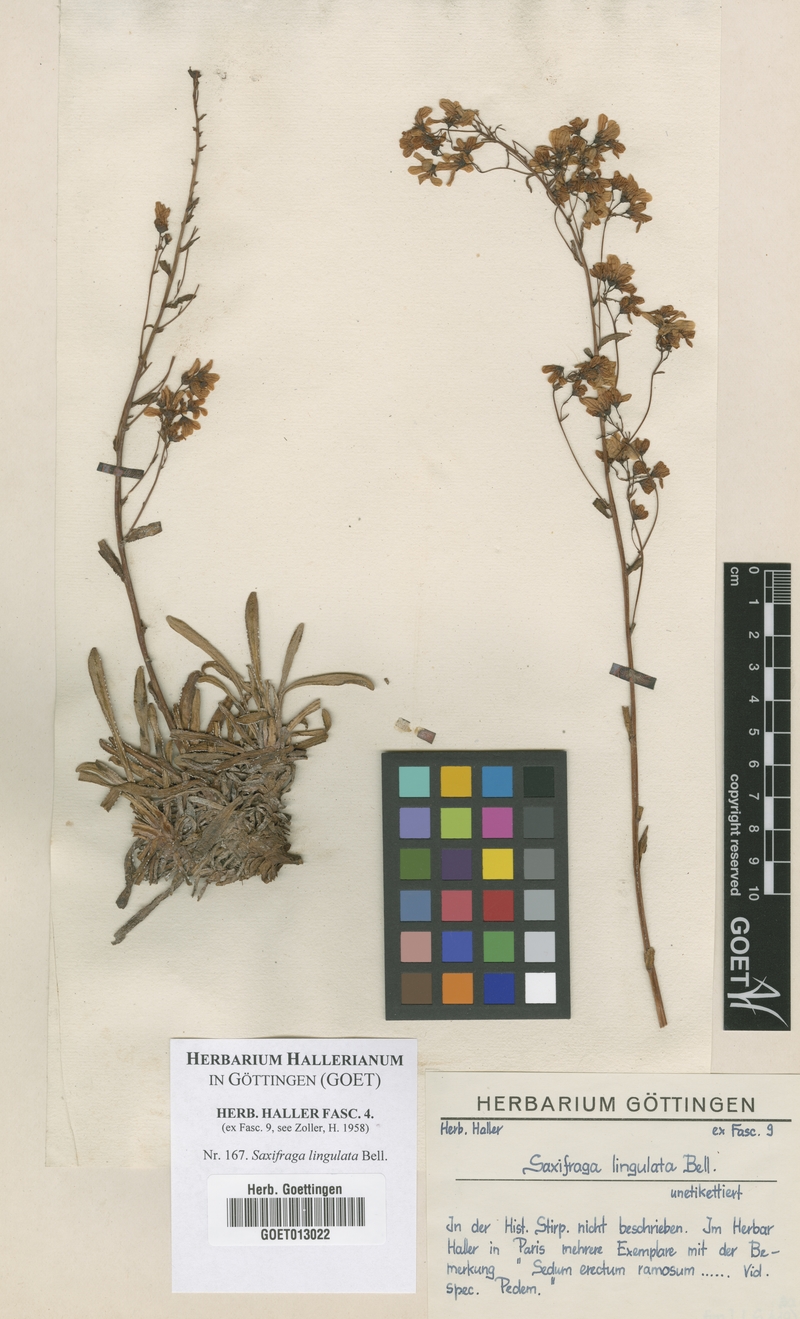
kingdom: Plantae
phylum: Tracheophyta
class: Magnoliopsida
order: Saxifragales
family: Saxifragaceae
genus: Saxifraga
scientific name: Saxifraga callosa
